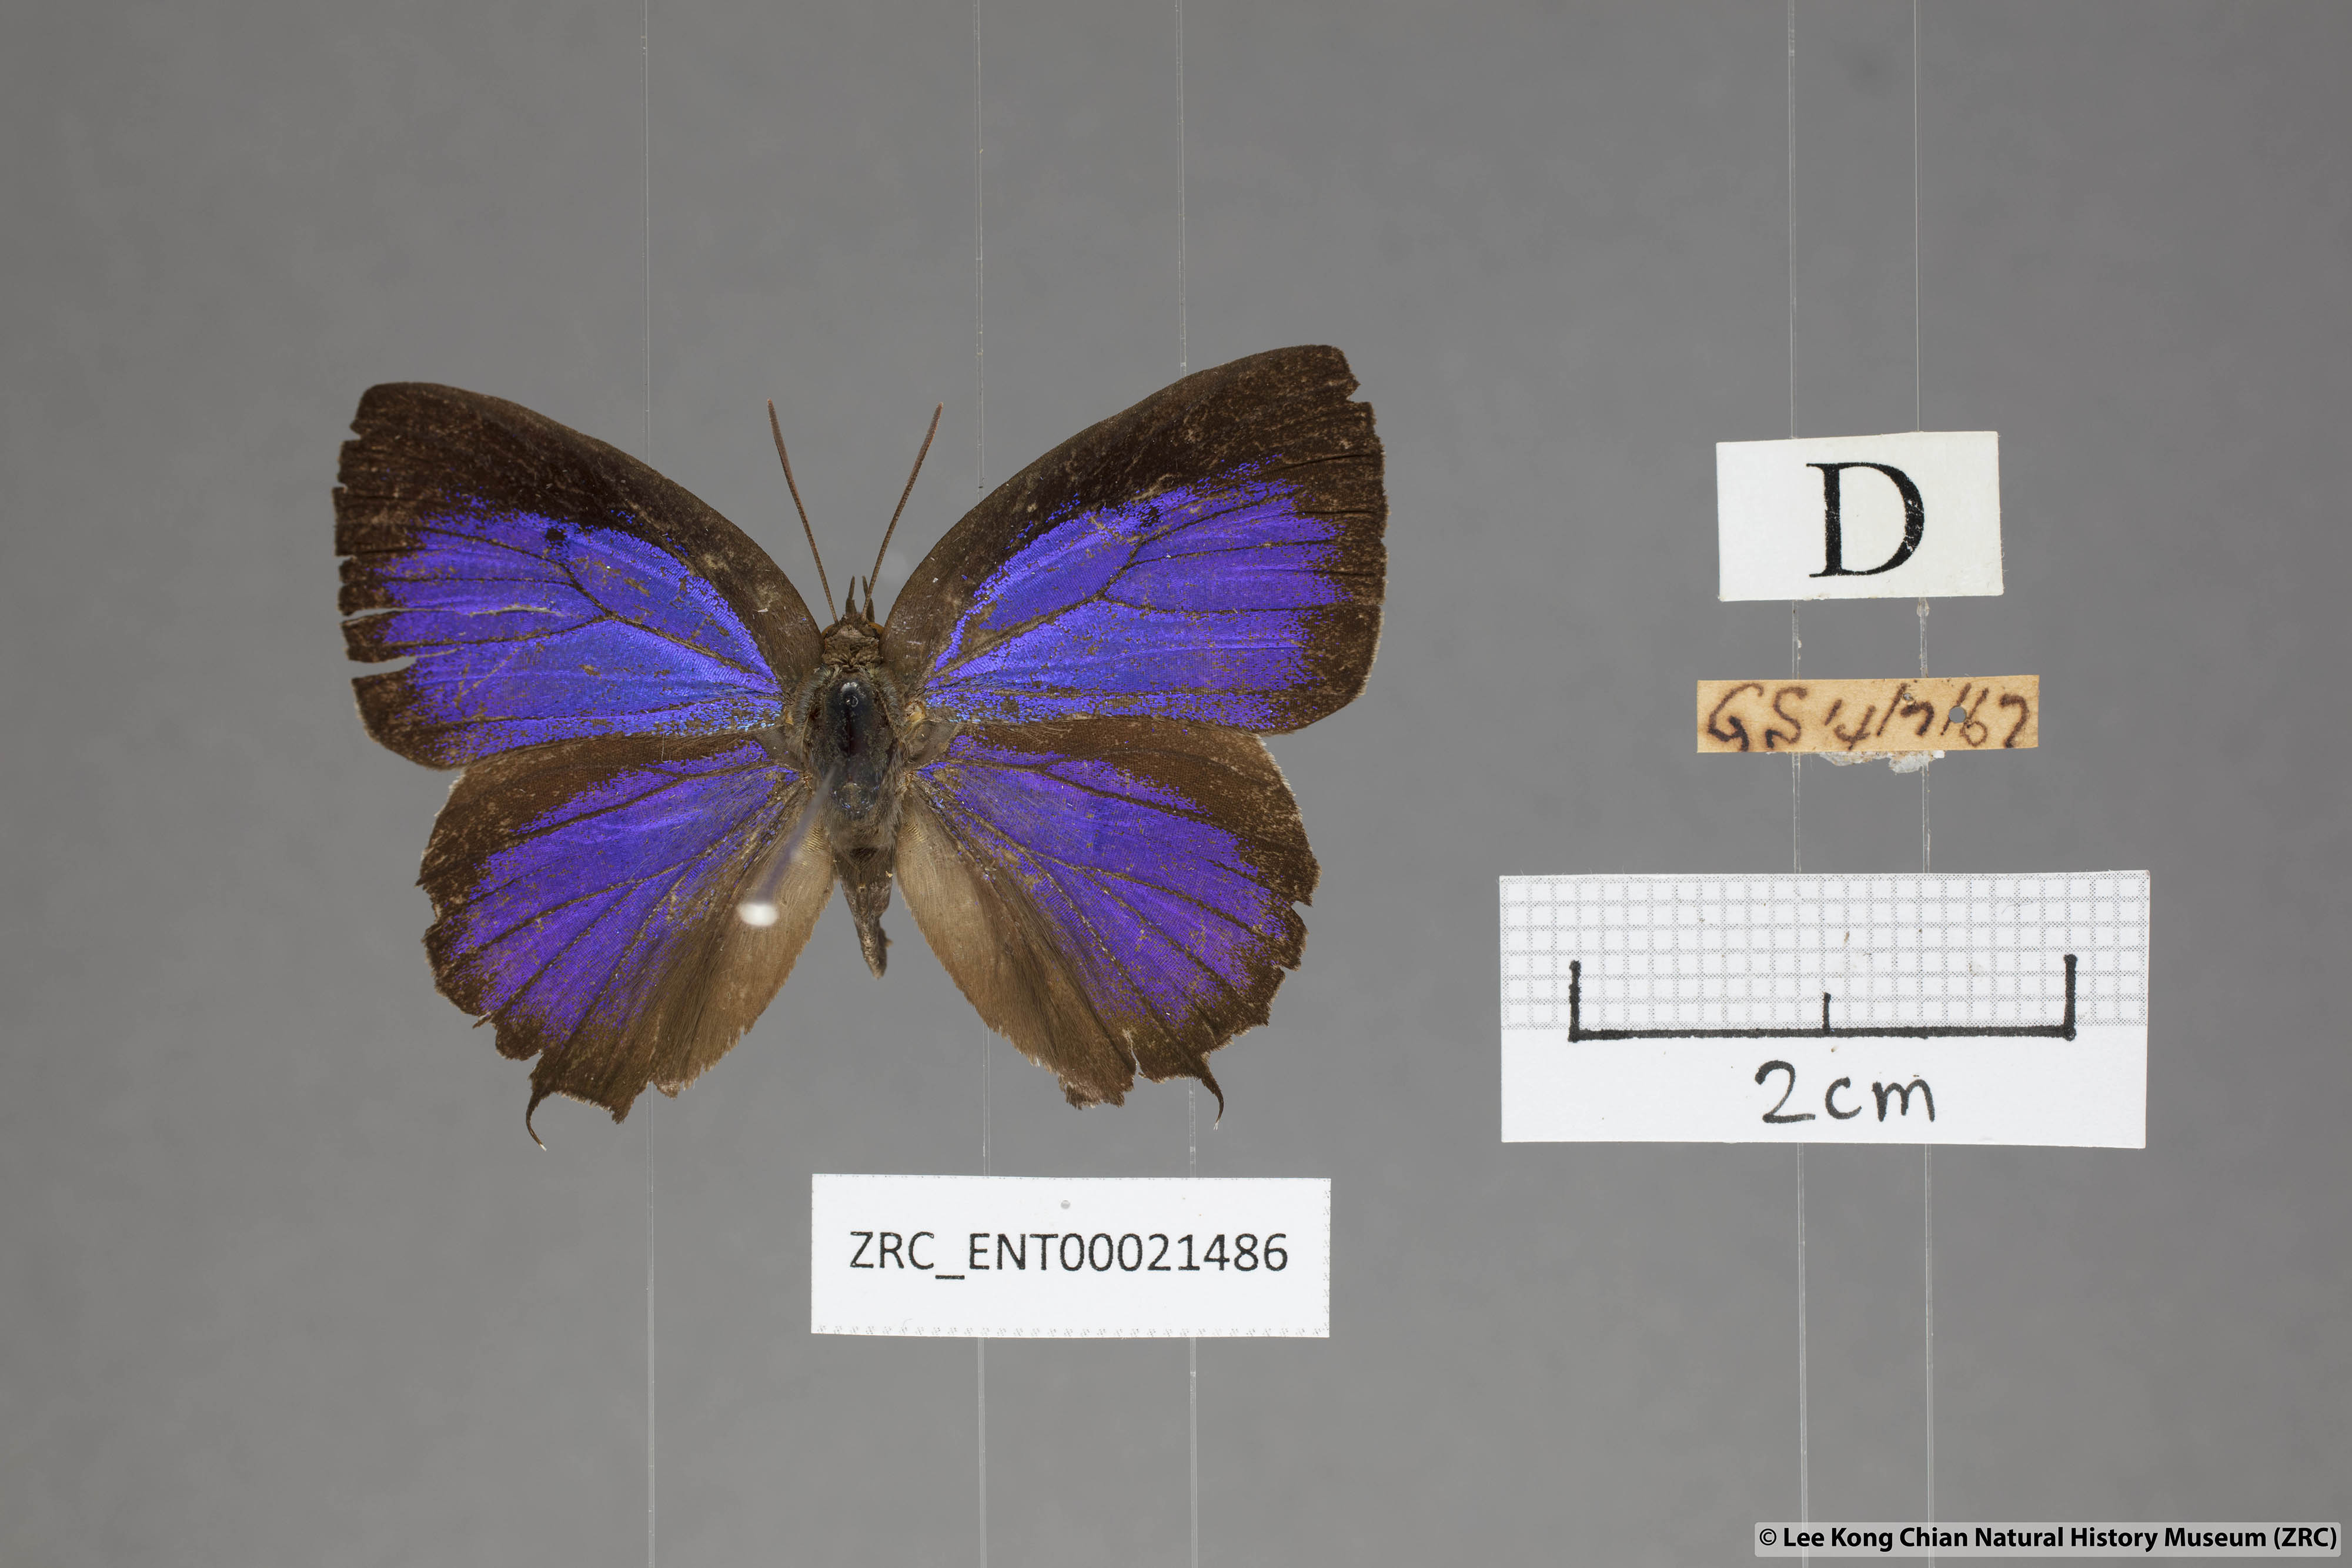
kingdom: Animalia
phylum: Arthropoda
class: Insecta
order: Lepidoptera
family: Lycaenidae
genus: Flos
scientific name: Flos
